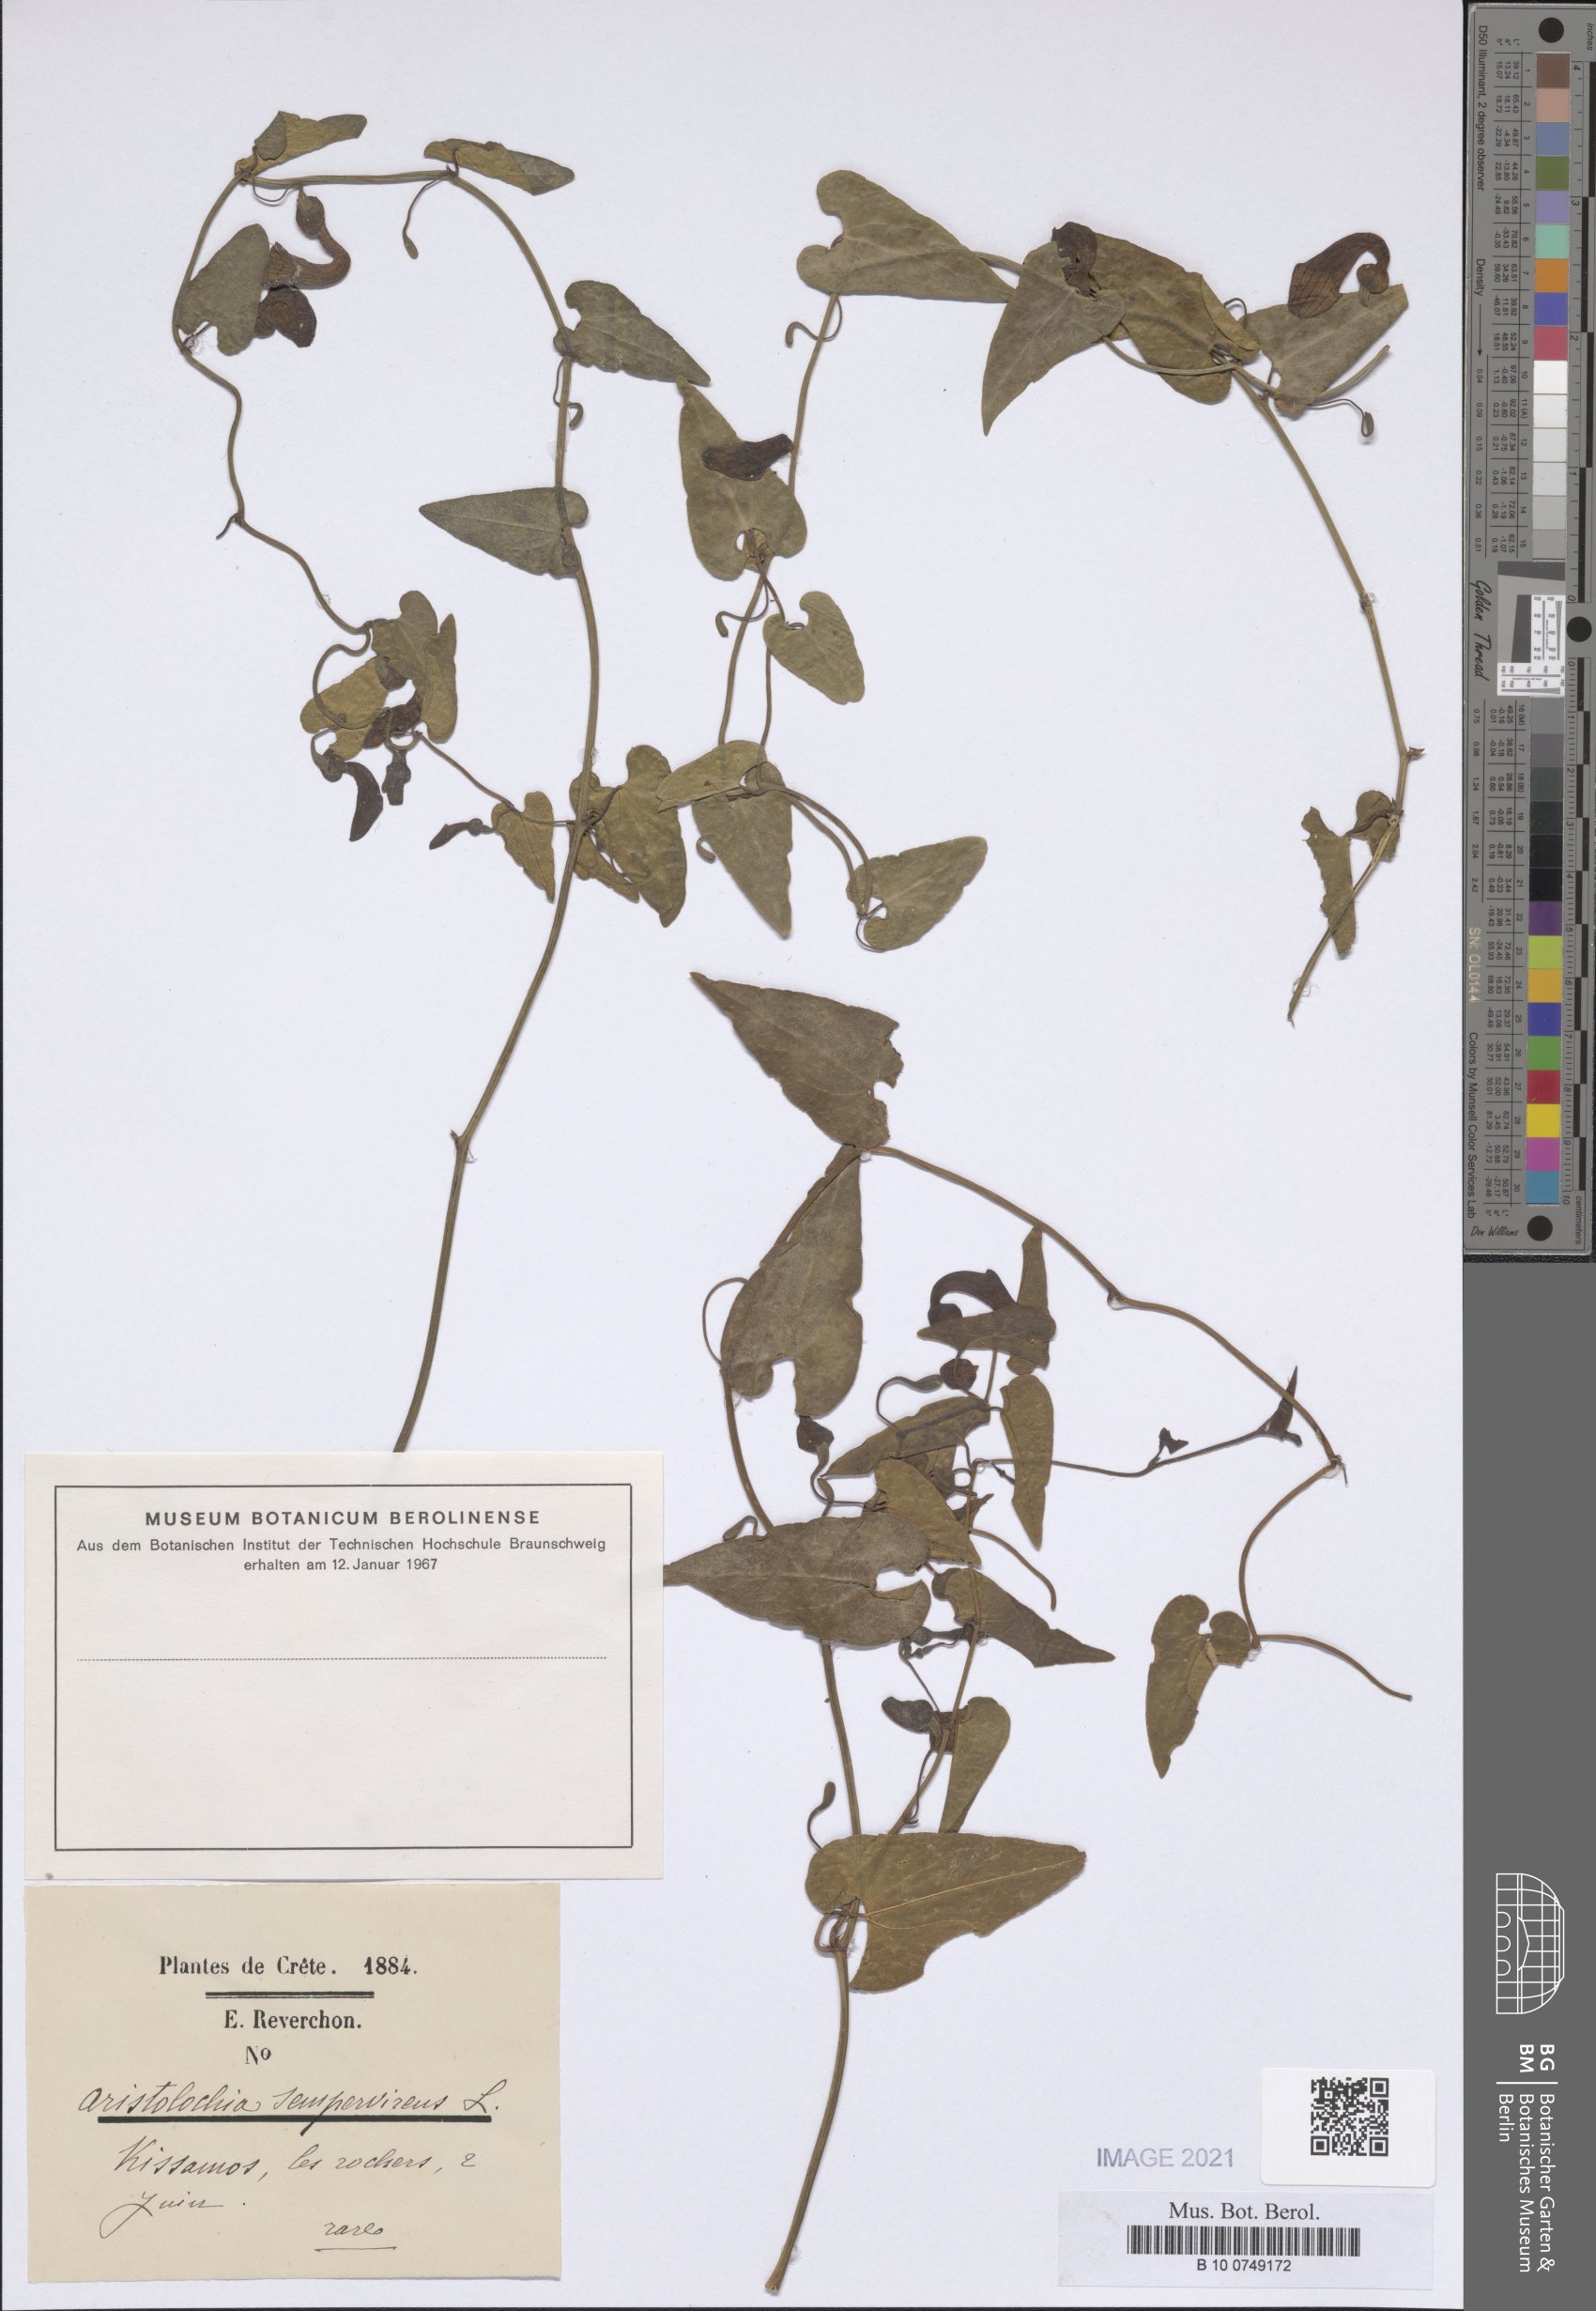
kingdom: Plantae
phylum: Tracheophyta
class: Magnoliopsida
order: Piperales
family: Aristolochiaceae
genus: Aristolochia
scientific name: Aristolochia sempervirens
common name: Long birthwort
